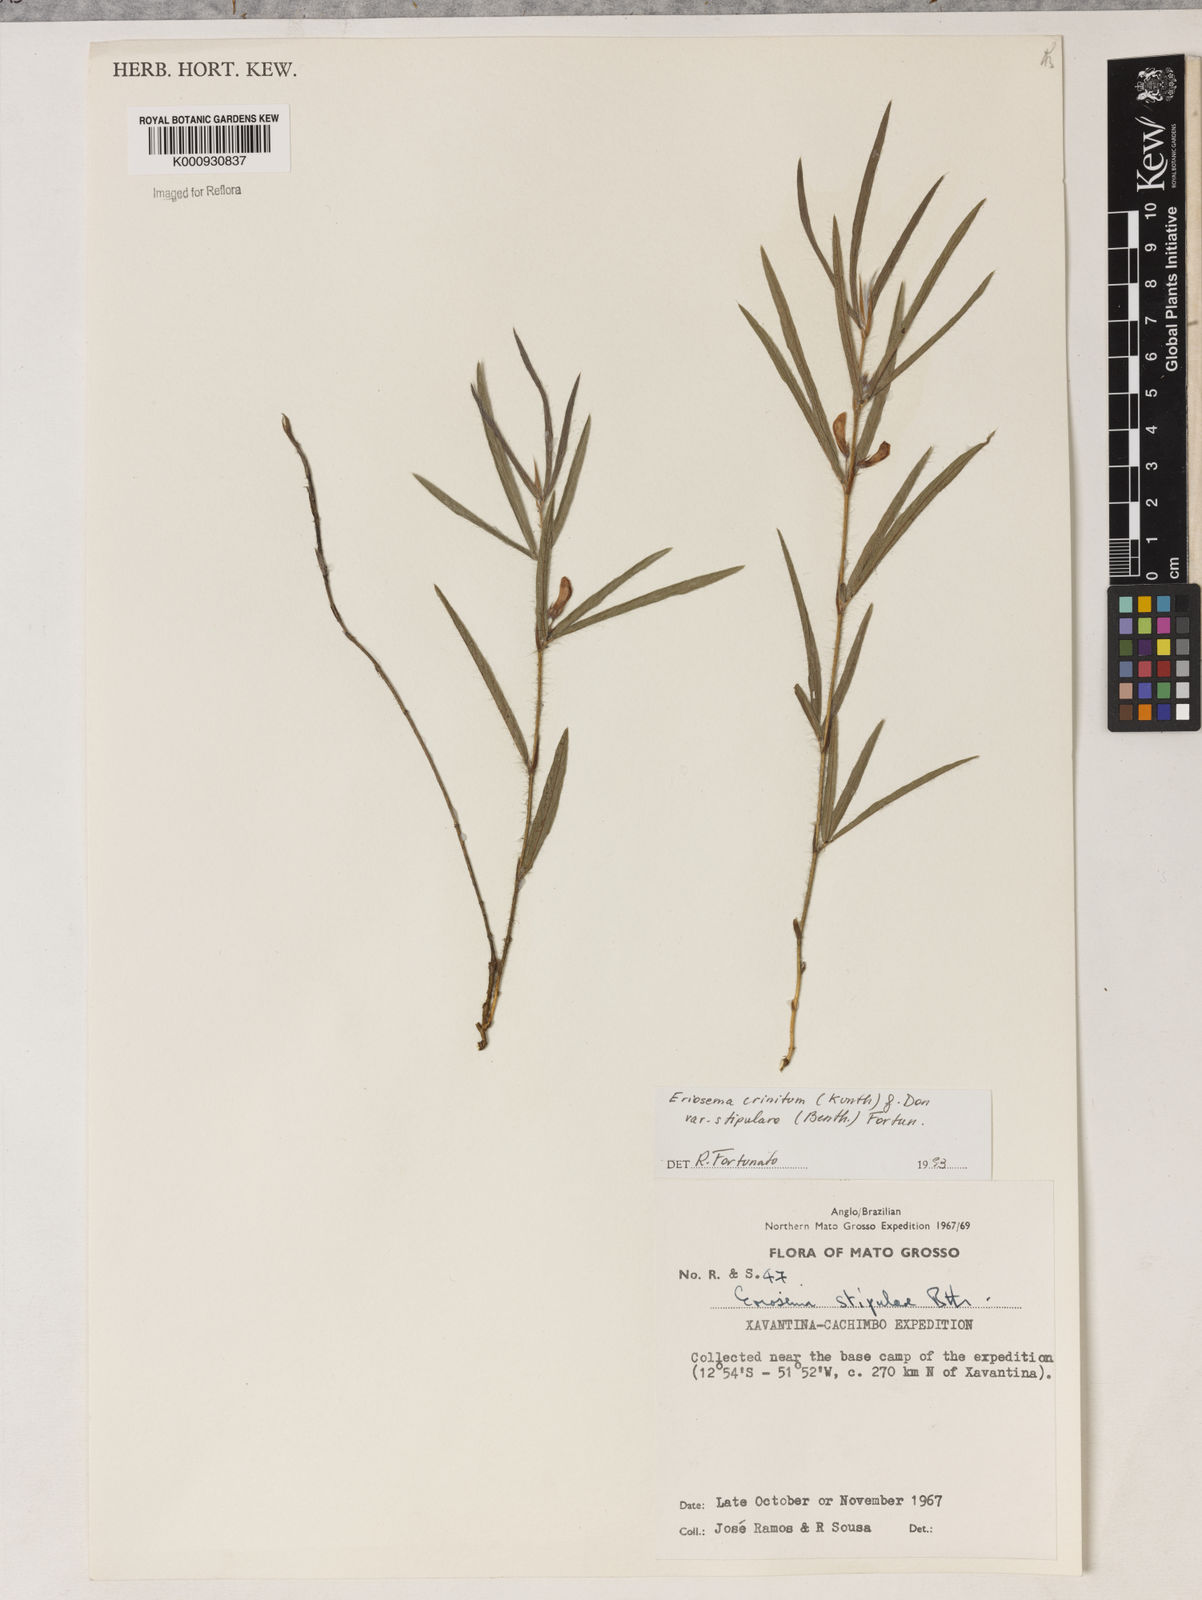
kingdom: Plantae
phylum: Tracheophyta
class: Magnoliopsida
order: Fabales
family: Fabaceae
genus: Eriosema
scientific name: Eriosema crinitum
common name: Sand pea
